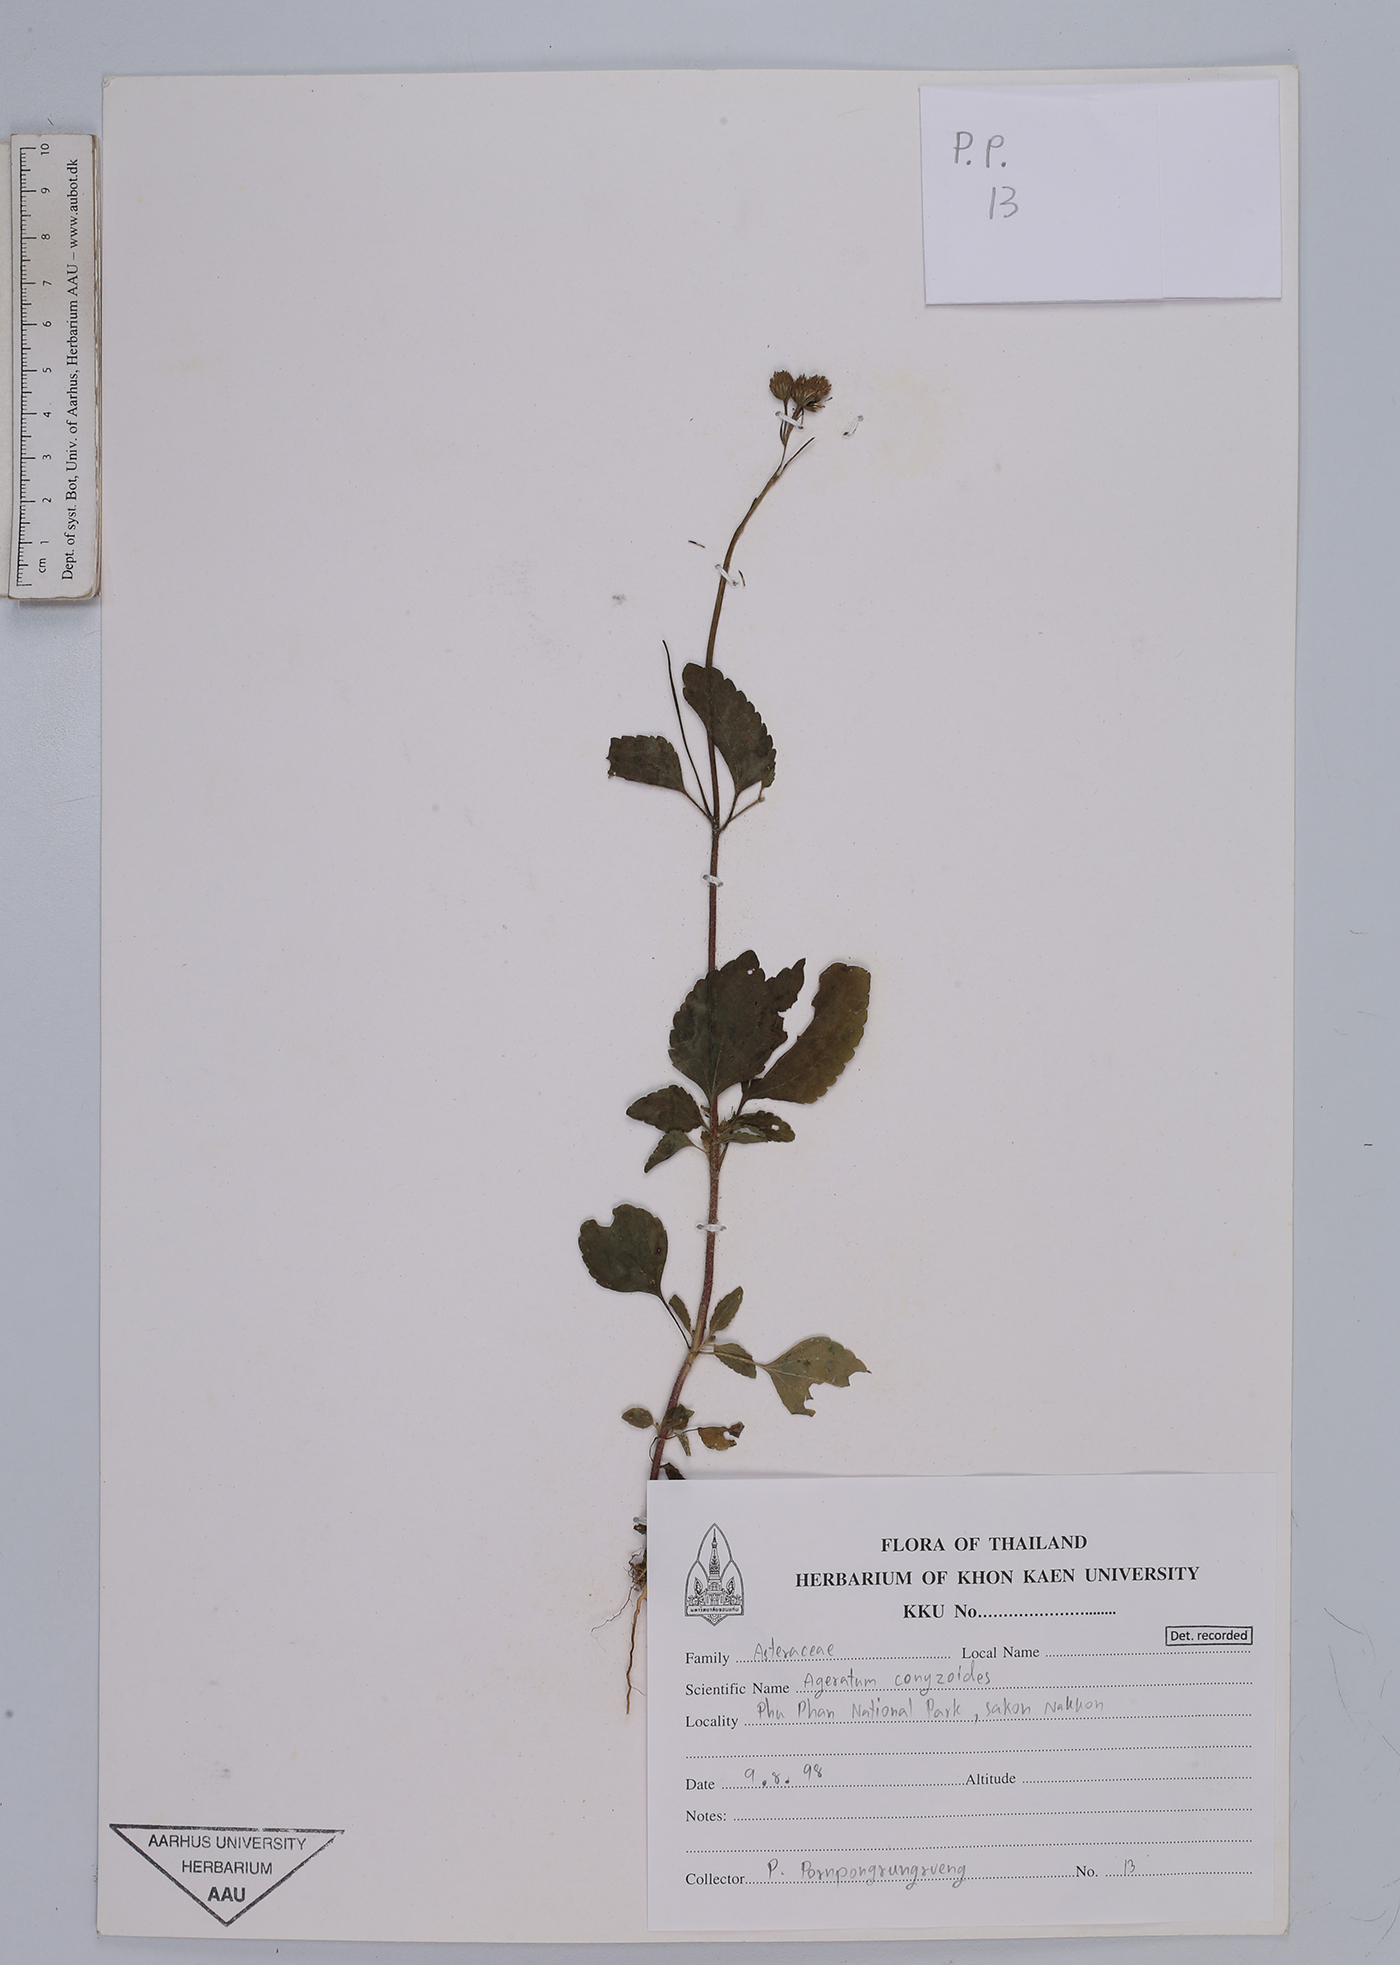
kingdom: Plantae
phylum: Tracheophyta
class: Magnoliopsida
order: Asterales
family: Asteraceae
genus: Ageratum
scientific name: Ageratum conyzoides
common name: Tropical whiteweed
